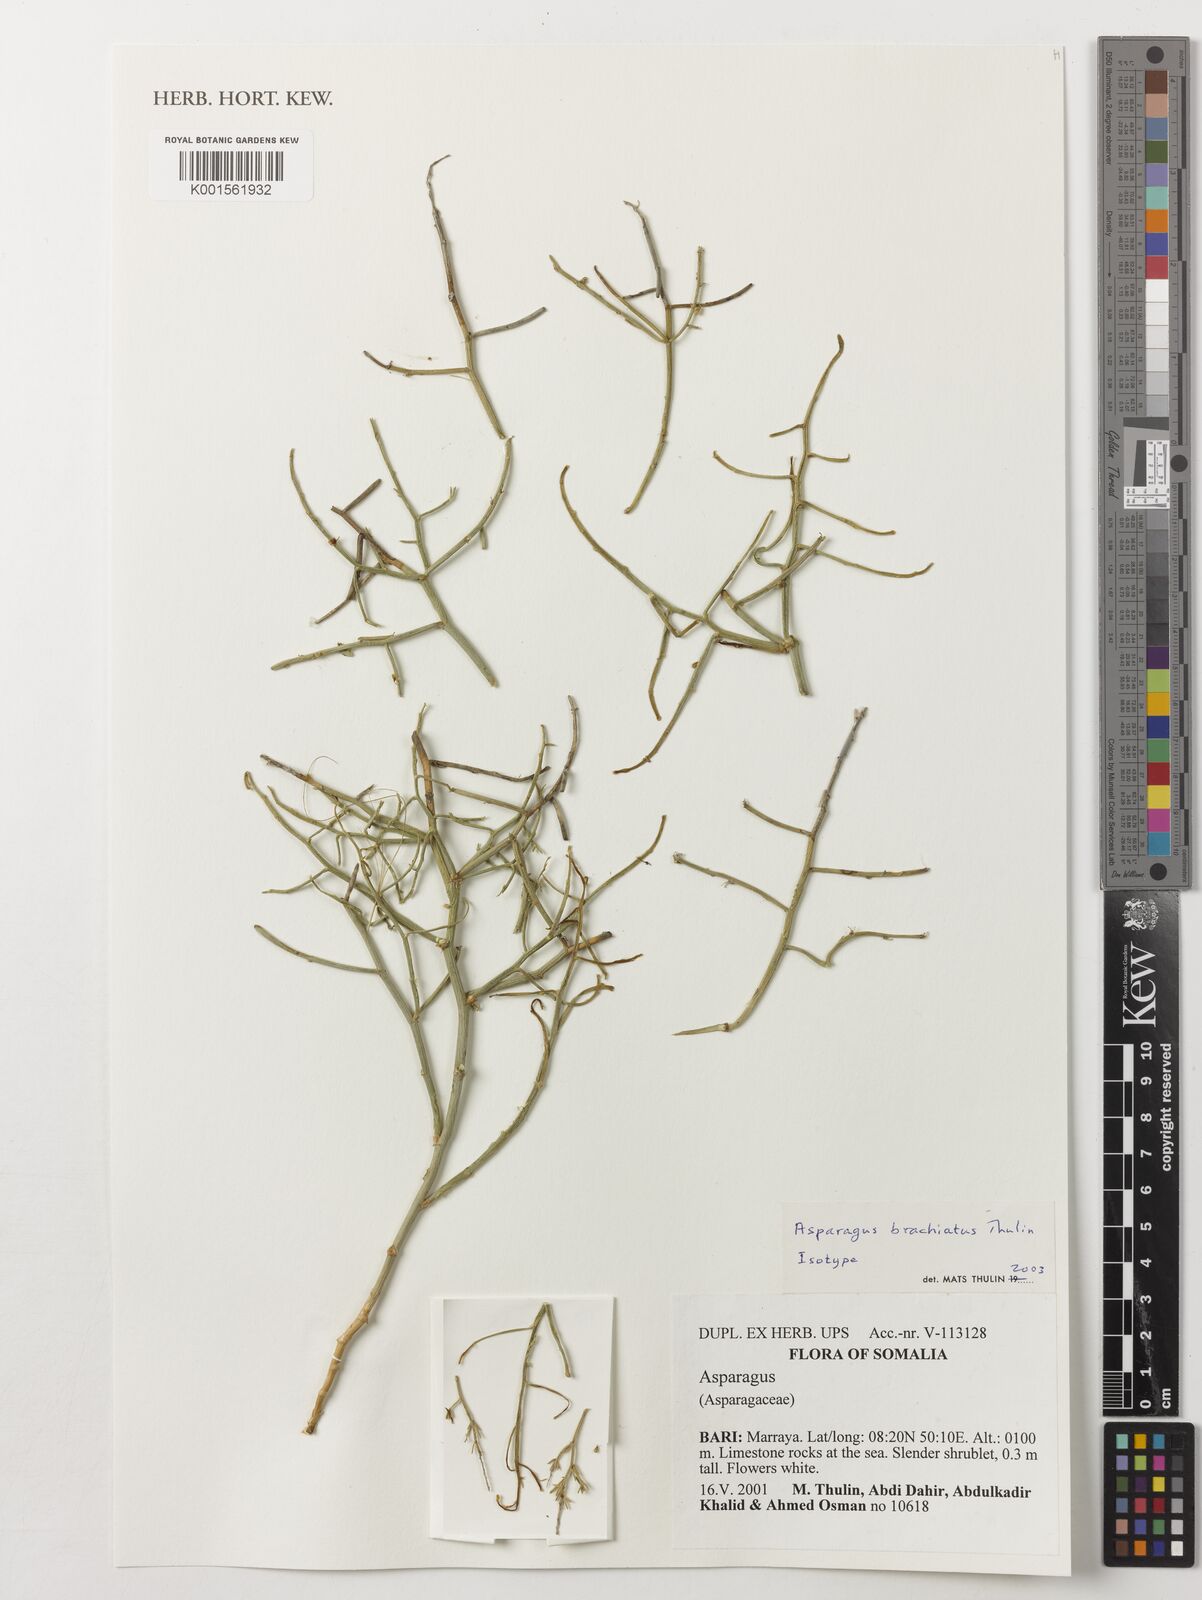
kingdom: Plantae
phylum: Tracheophyta
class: Liliopsida
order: Asparagales
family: Asparagaceae
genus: Asparagus
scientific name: Asparagus brachiatus
